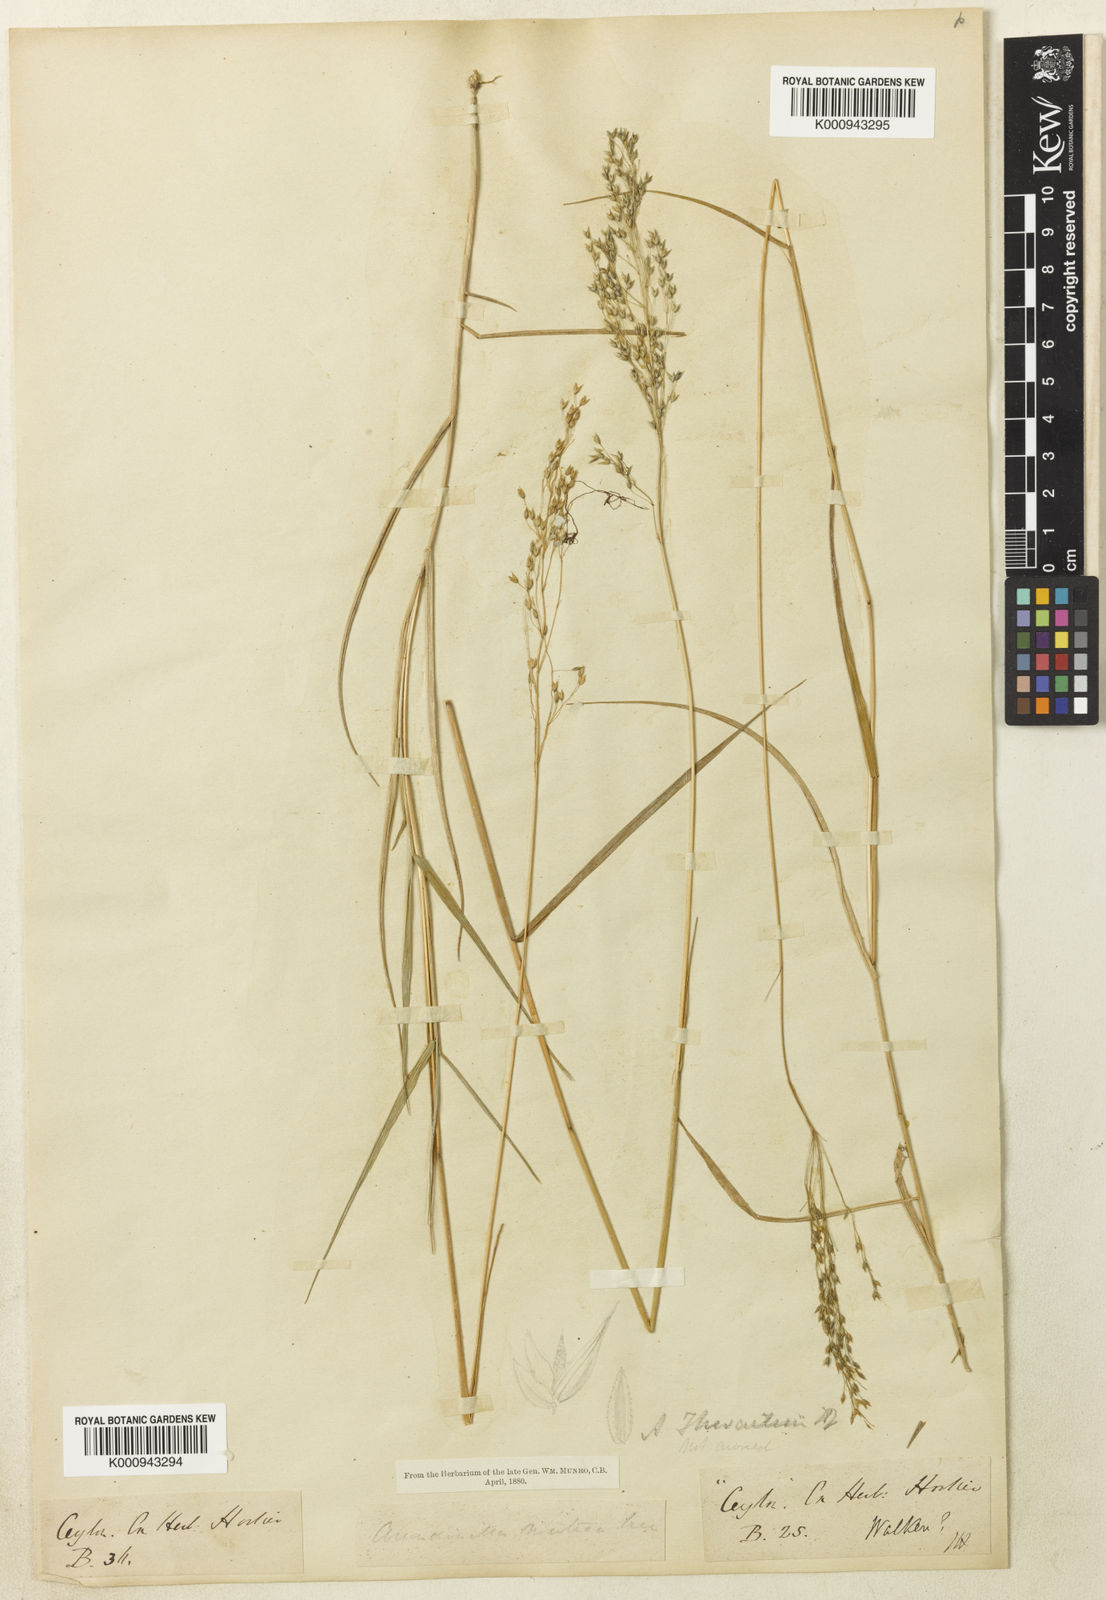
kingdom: Plantae
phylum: Tracheophyta
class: Liliopsida
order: Poales
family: Poaceae
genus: Arundinella
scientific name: Arundinella thwaitesii
